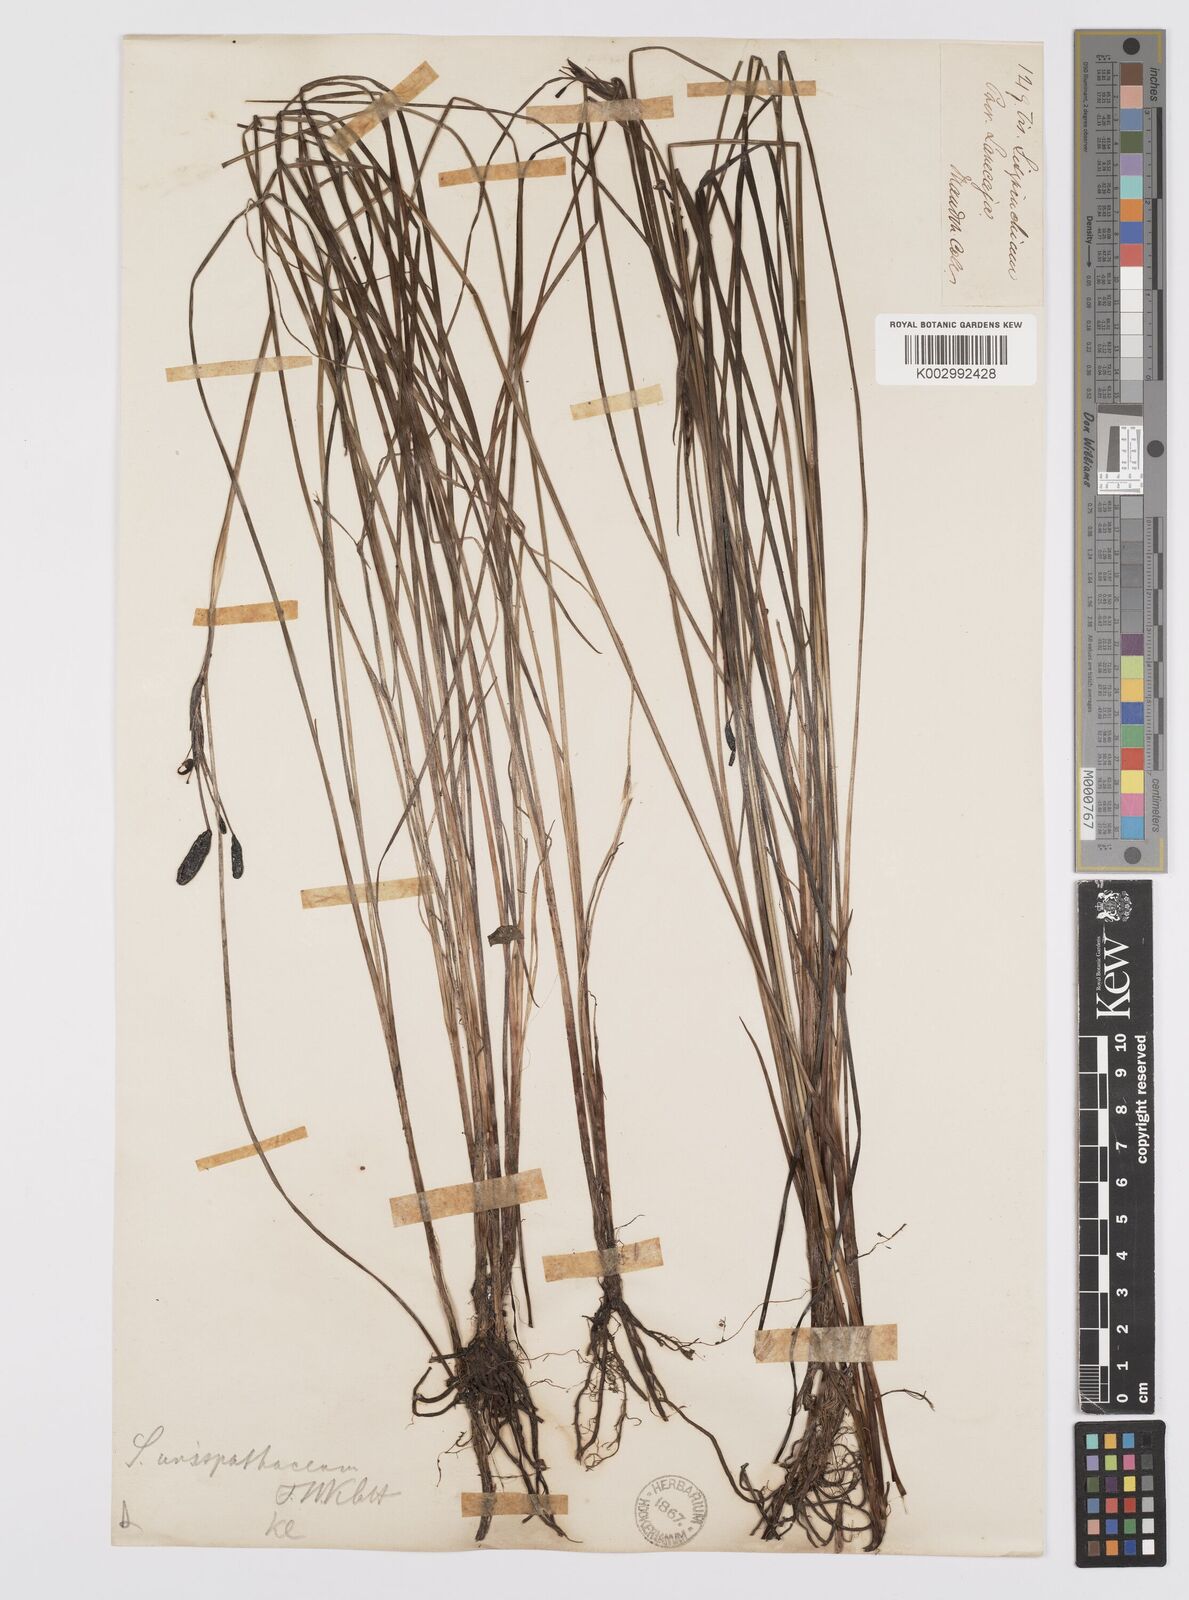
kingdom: Plantae
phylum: Tracheophyta
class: Liliopsida
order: Asparagales
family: Iridaceae
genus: Sisyrinchium
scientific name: Sisyrinchium unispathaceum
